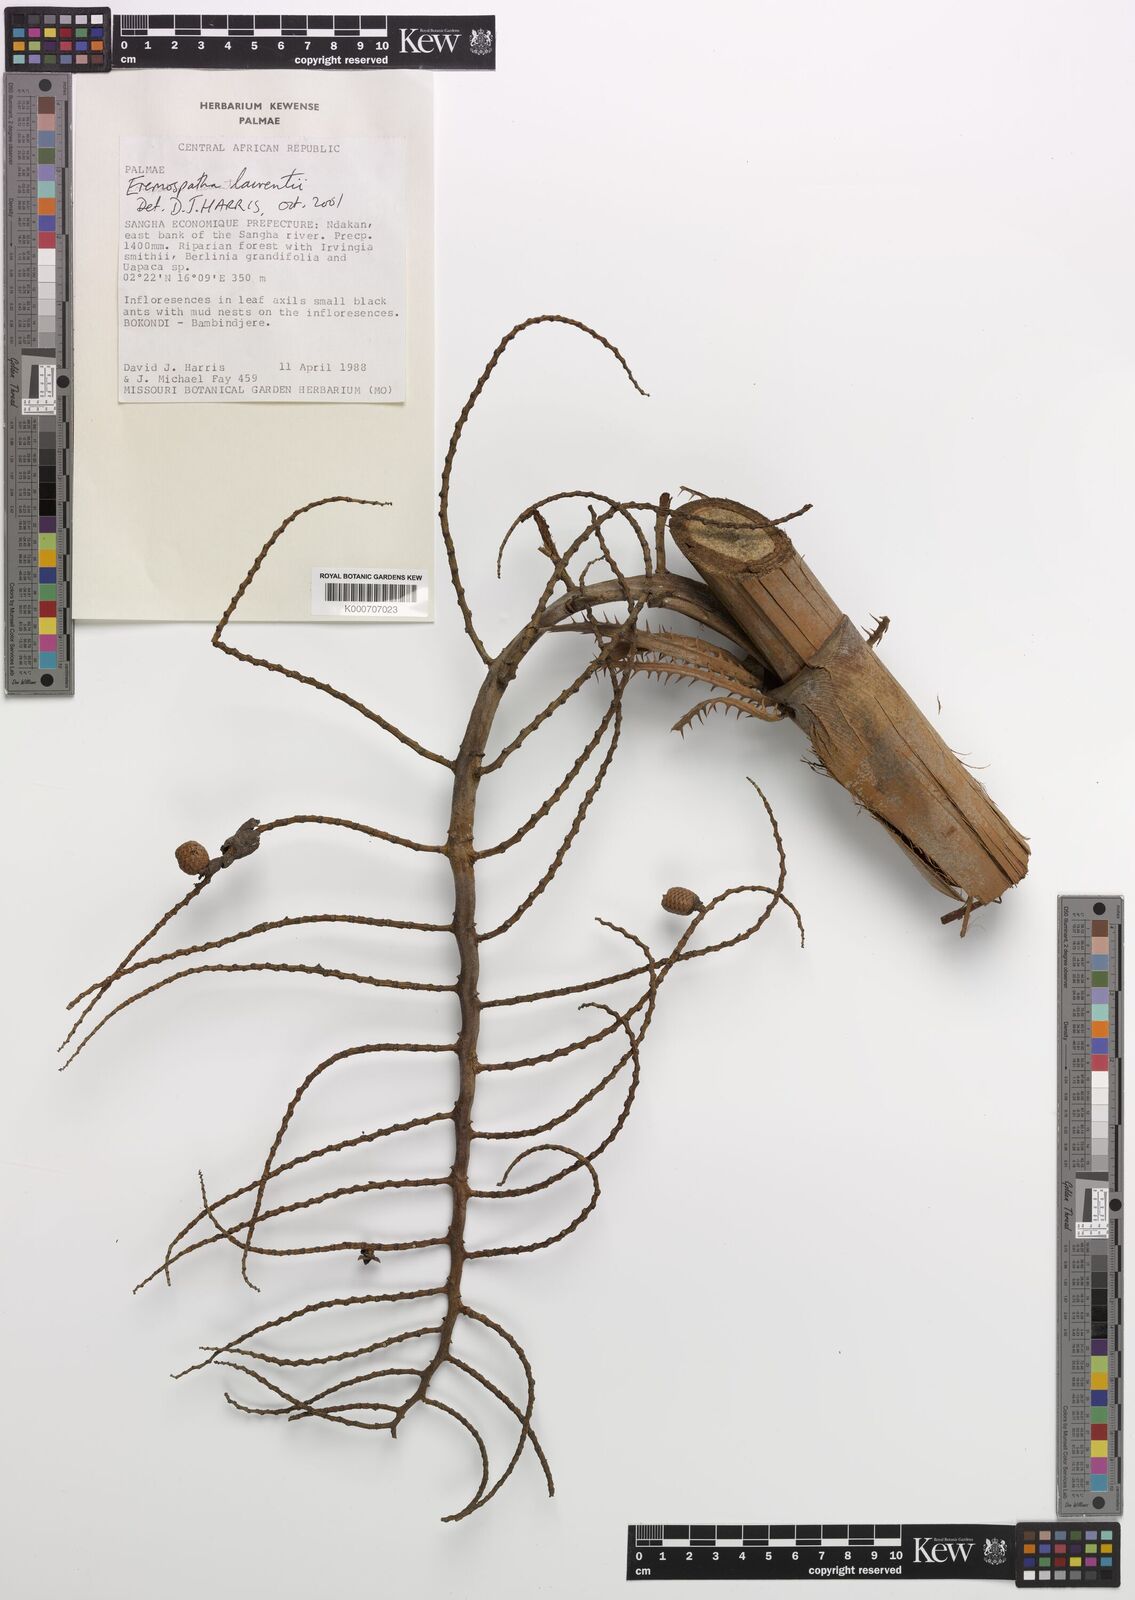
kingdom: Plantae
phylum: Tracheophyta
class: Liliopsida
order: Arecales
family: Arecaceae
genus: Eremospatha
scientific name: Eremospatha laurentii
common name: Rattan palm
